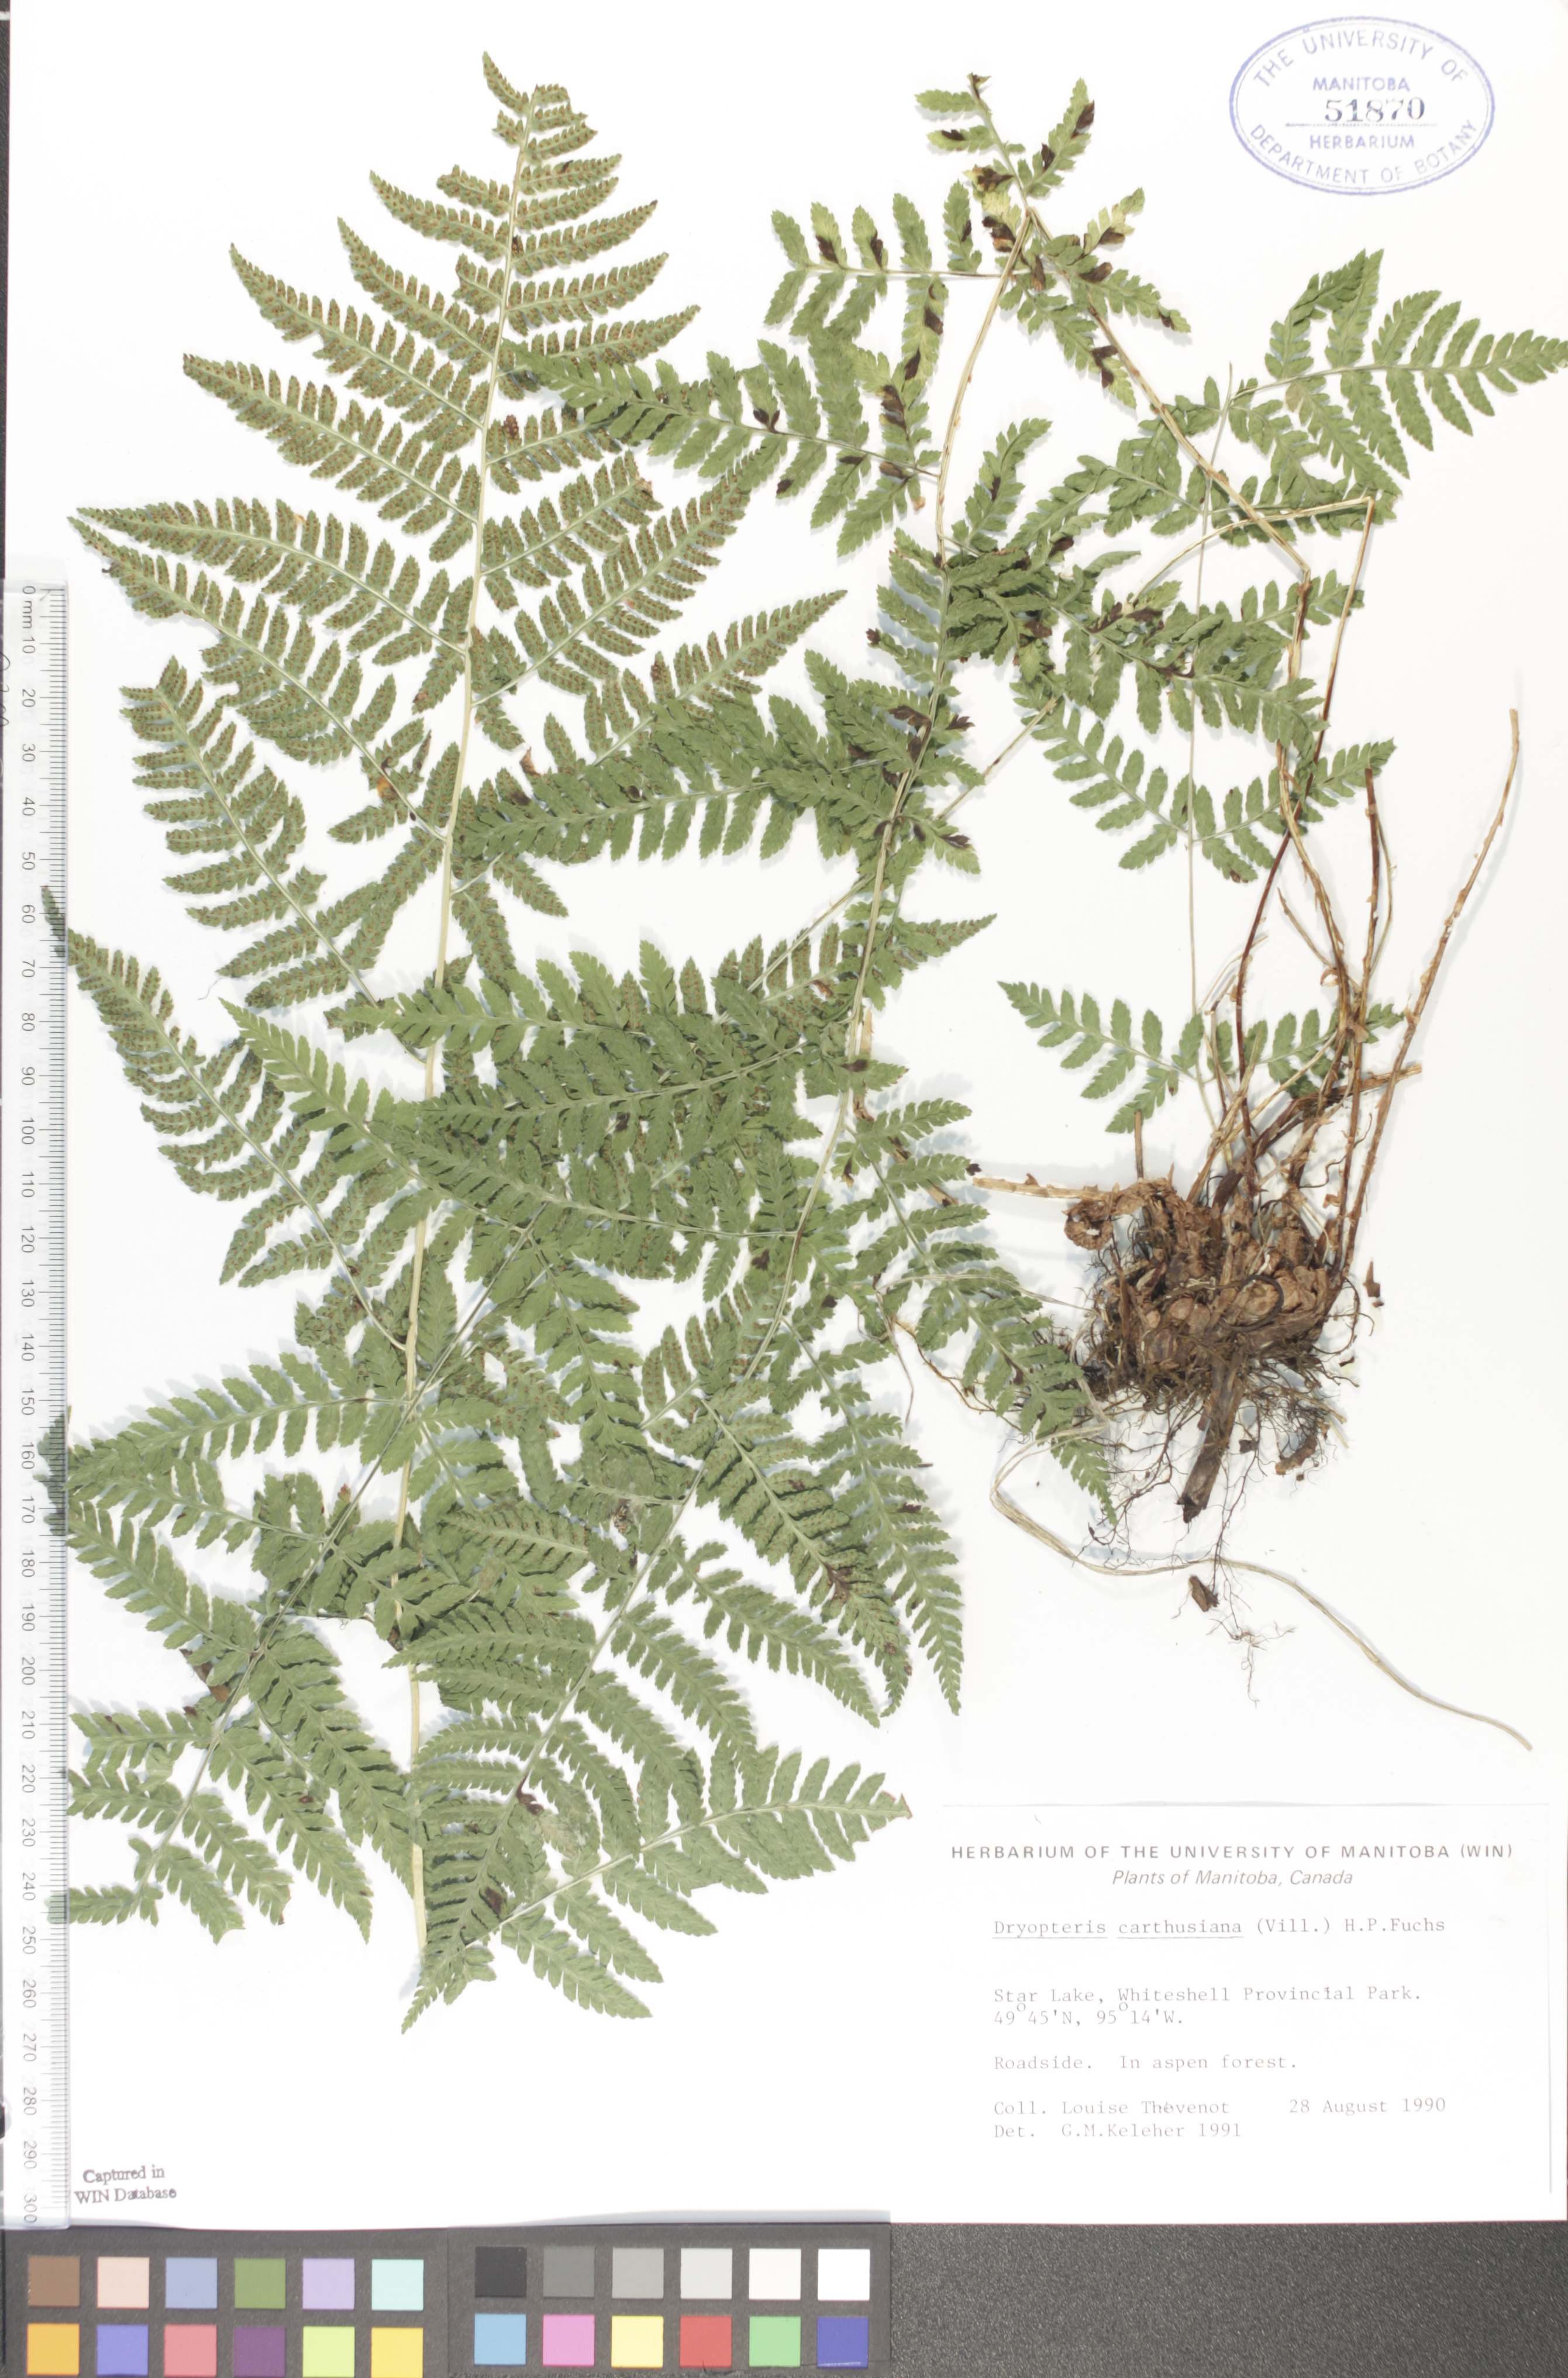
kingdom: Plantae
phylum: Tracheophyta
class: Polypodiopsida
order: Polypodiales
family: Dryopteridaceae
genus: Dryopteris
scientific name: Dryopteris carthusiana
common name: Narrow buckler-fern
